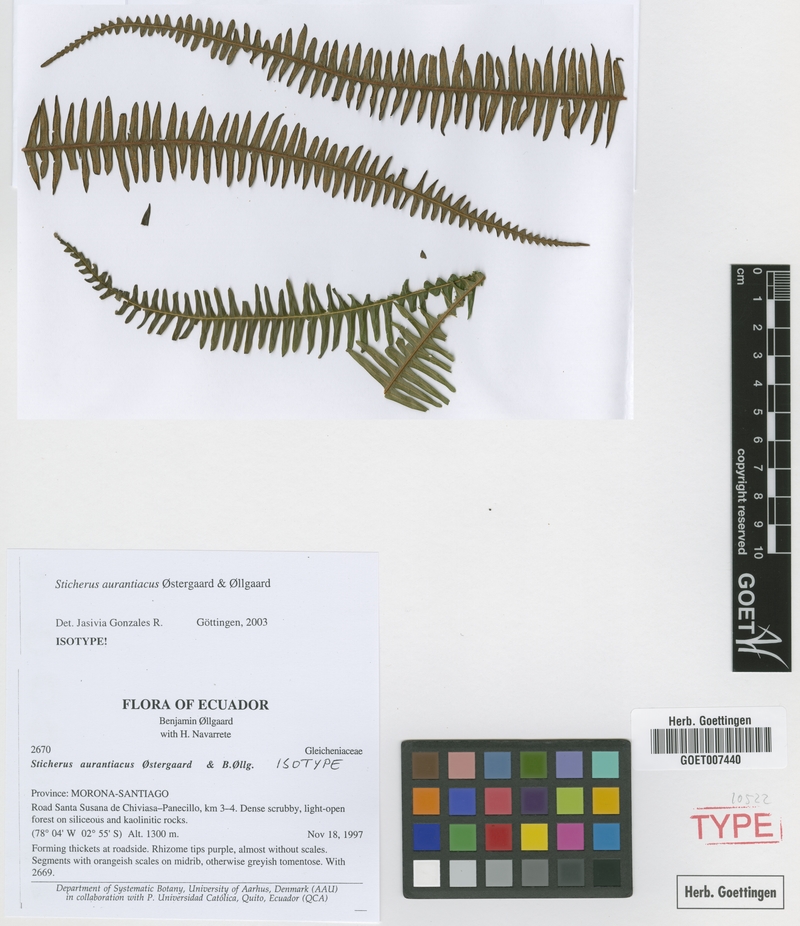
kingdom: Plantae
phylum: Tracheophyta
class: Polypodiopsida
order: Gleicheniales
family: Gleicheniaceae
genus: Sticherus
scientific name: Sticherus aurantiacus
